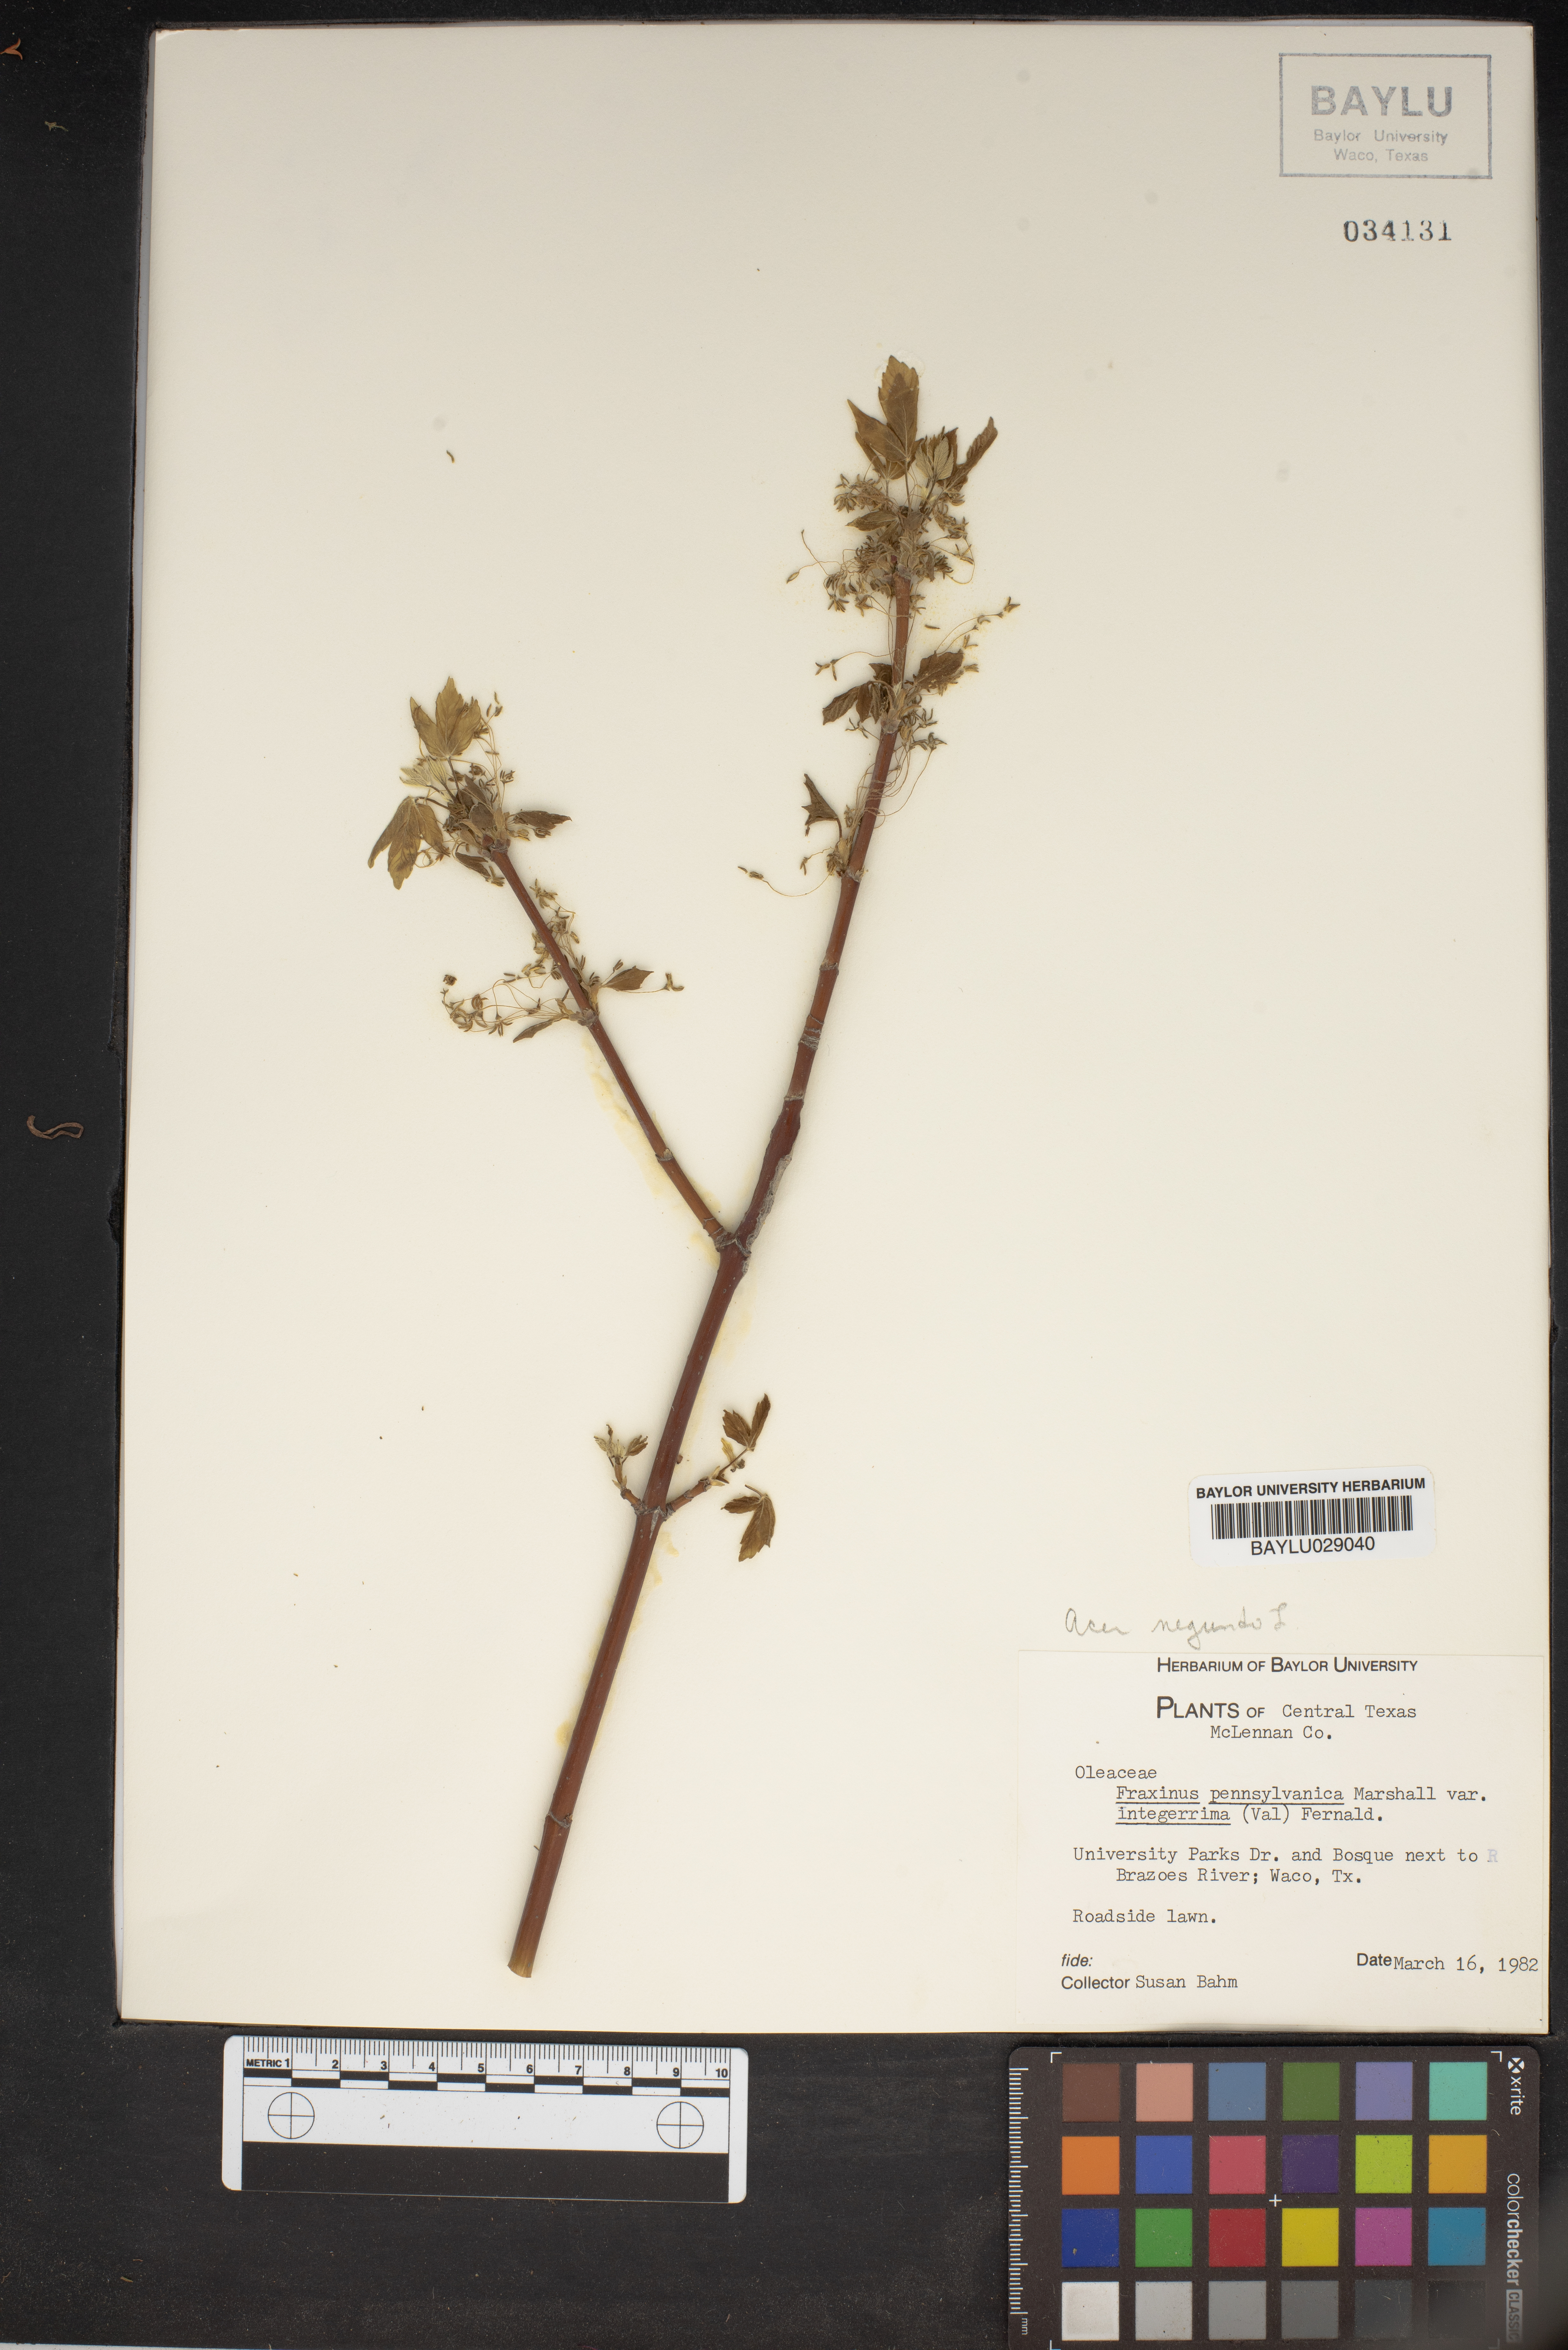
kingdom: Plantae
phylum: Tracheophyta
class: Magnoliopsida
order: Lamiales
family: Oleaceae
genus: Fraxinus
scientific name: Fraxinus pennsylvanica
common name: Green ash
